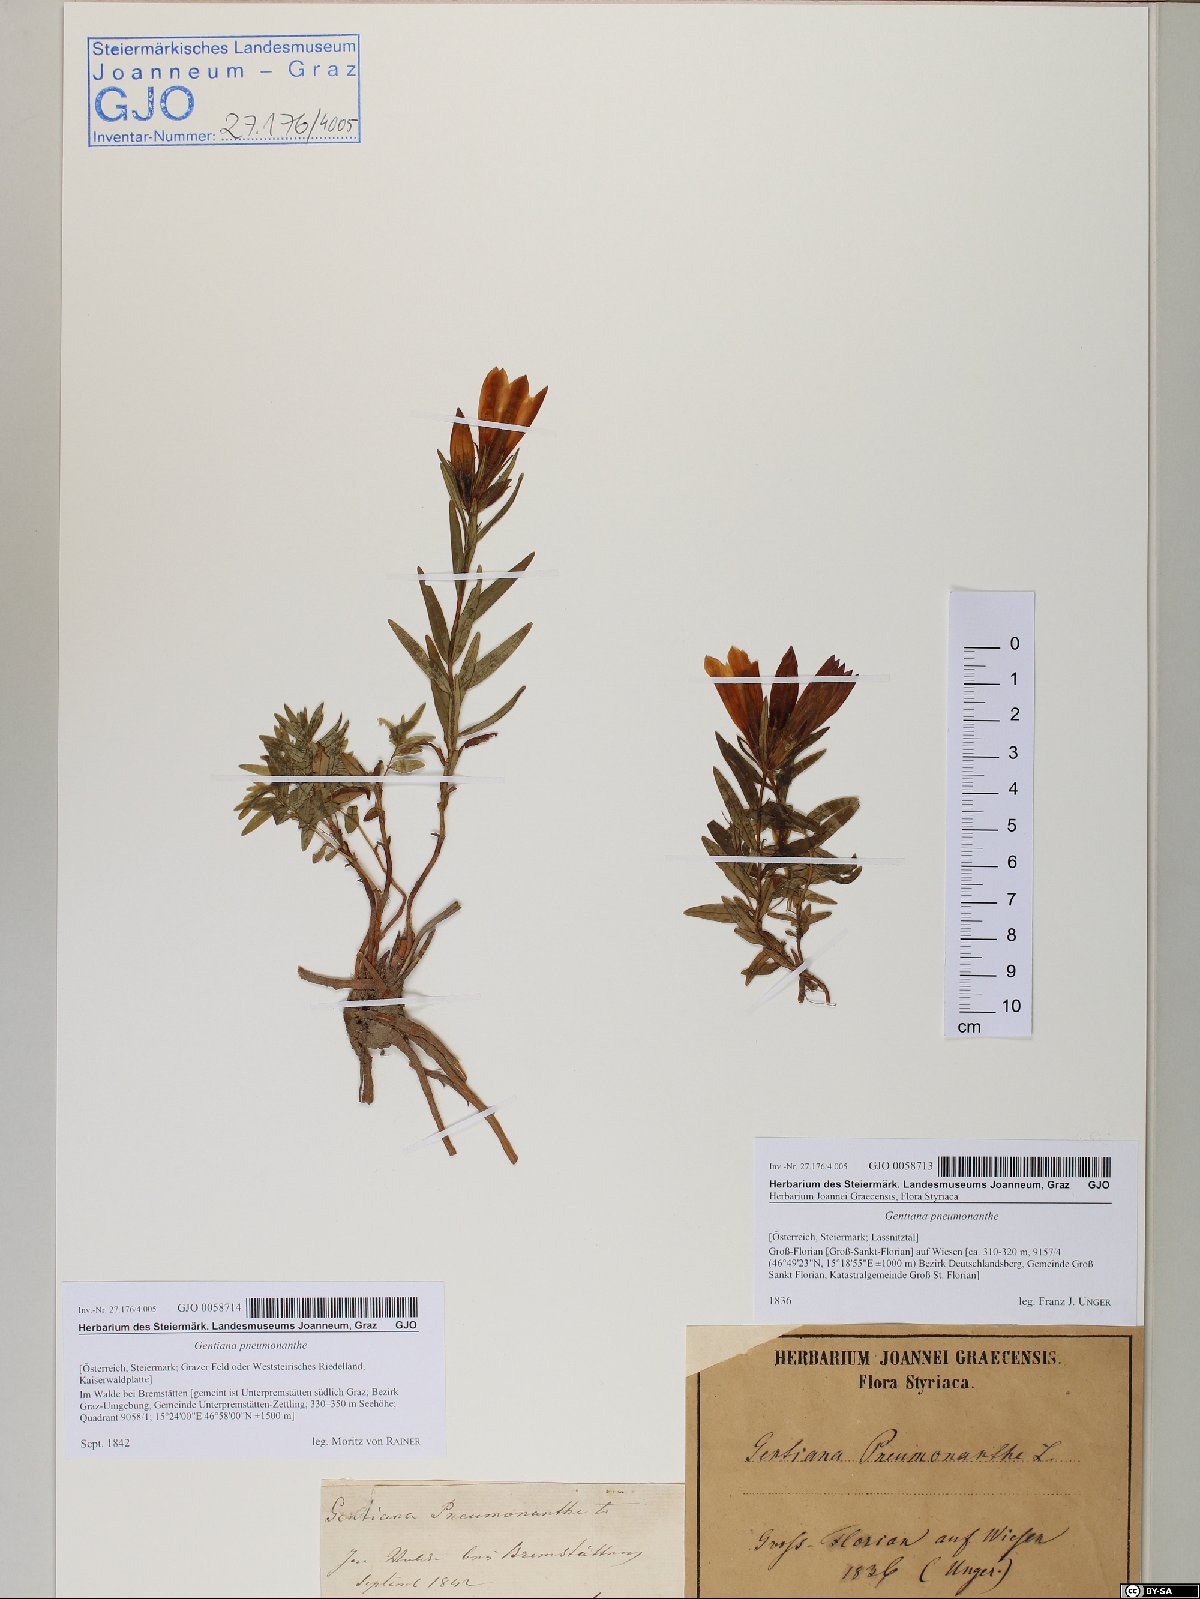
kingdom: Plantae
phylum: Tracheophyta
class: Magnoliopsida
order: Gentianales
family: Gentianaceae
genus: Gentiana
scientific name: Gentiana pneumonanthe
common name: Marsh gentian
